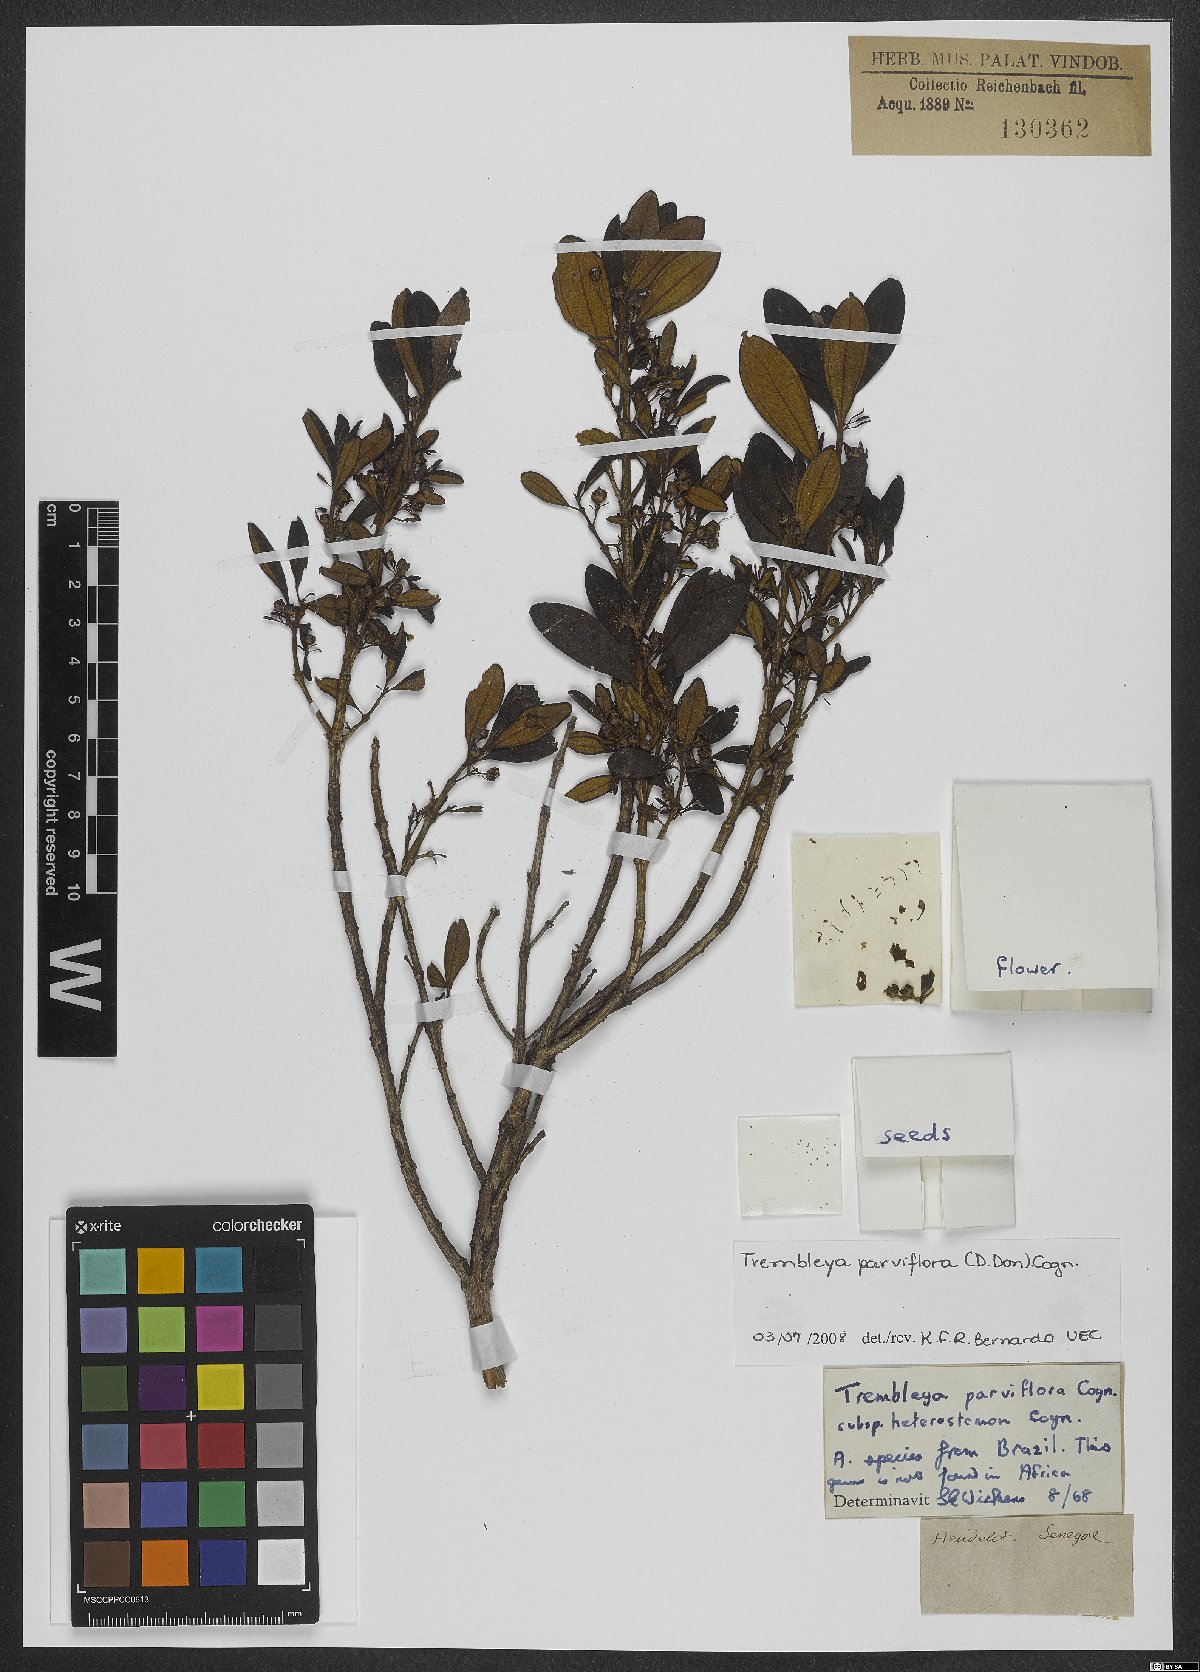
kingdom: Plantae
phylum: Tracheophyta
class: Magnoliopsida
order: Myrtales
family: Melastomataceae
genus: Microlicia
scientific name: Microlicia parviflora
